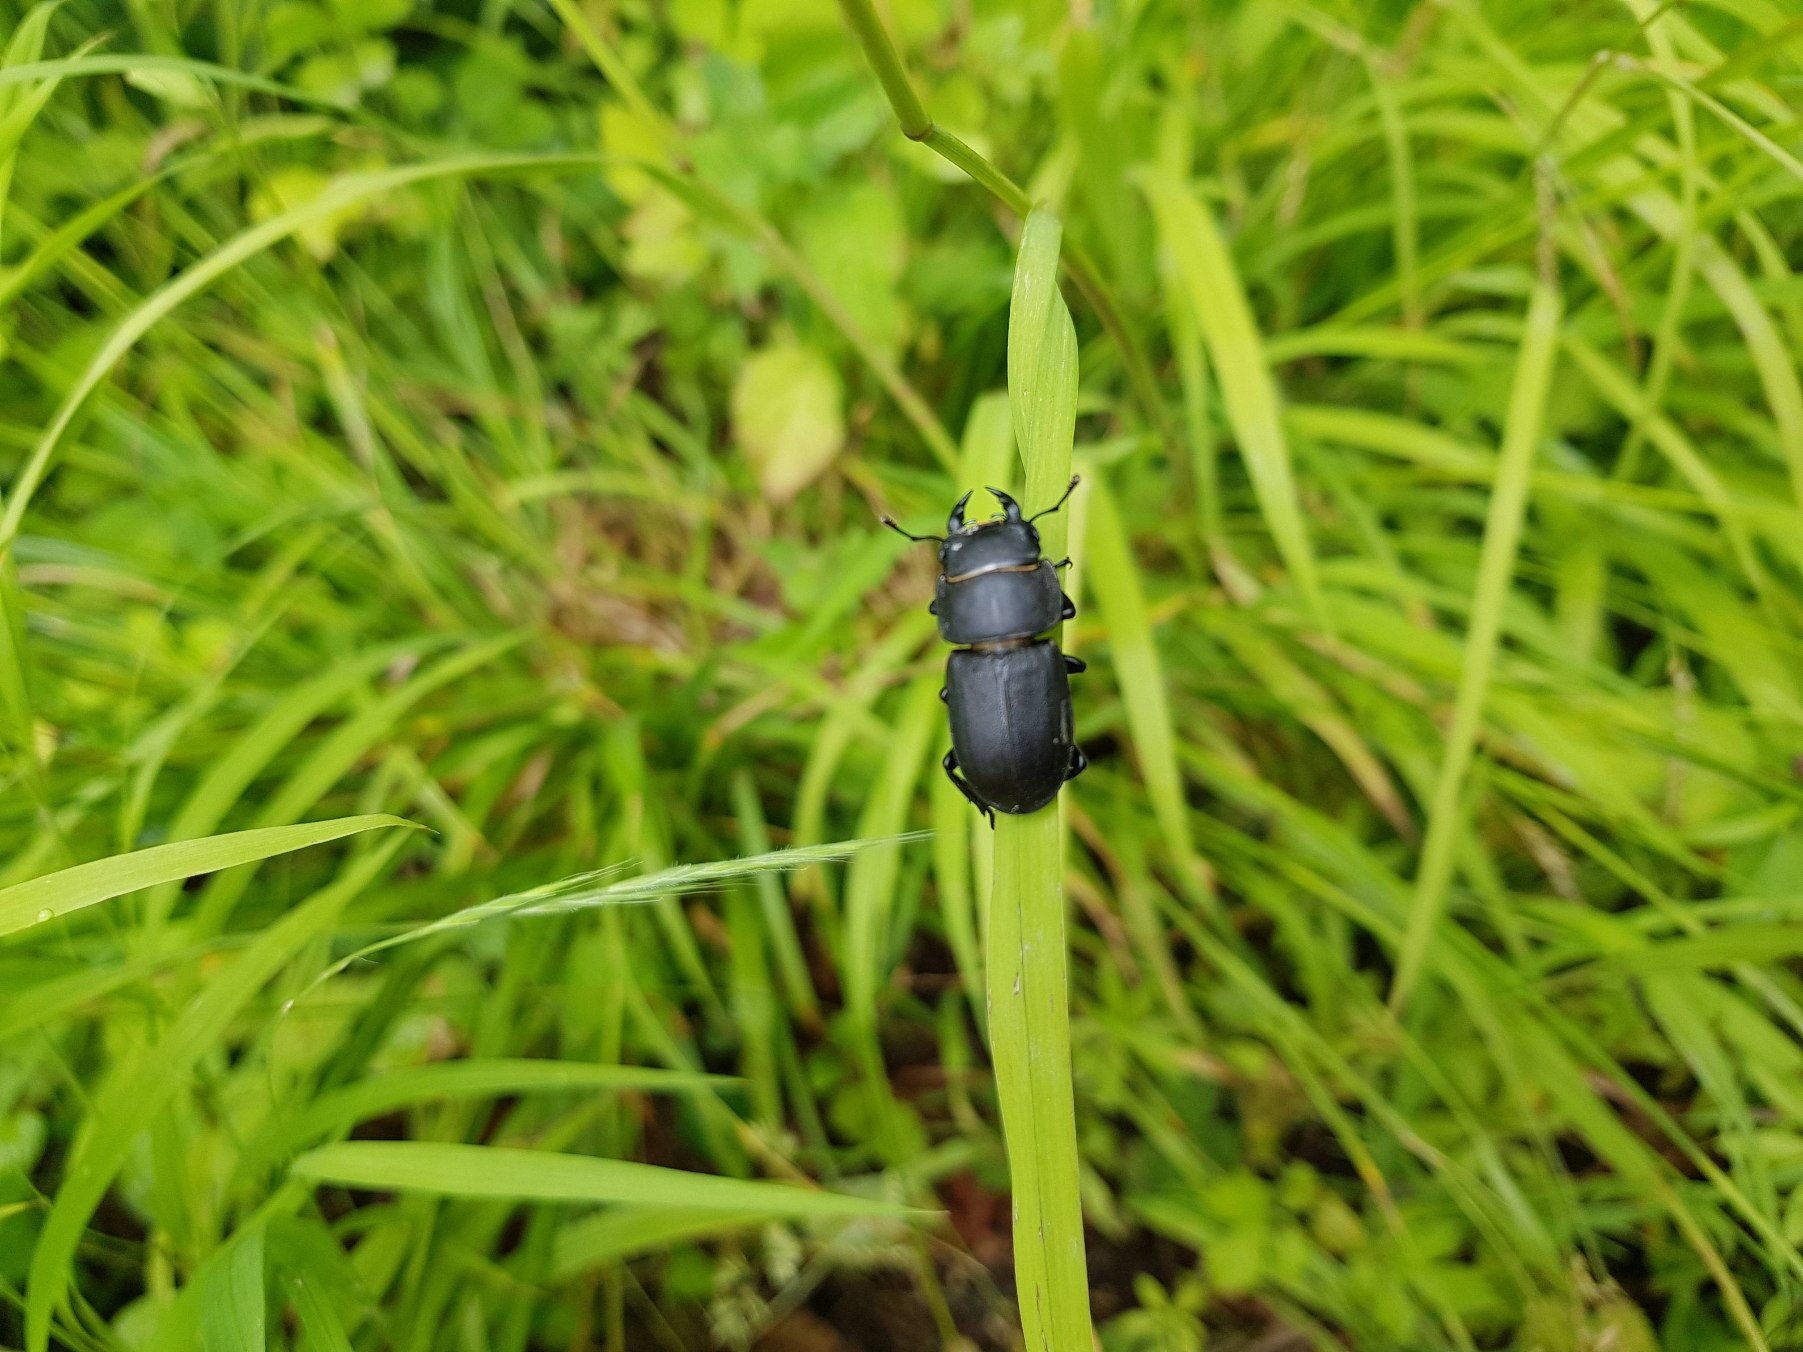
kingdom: Animalia
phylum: Arthropoda
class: Insecta
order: Coleoptera
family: Lucanidae
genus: Dorcus
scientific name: Dorcus parallelipipedus
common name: Bøghjort
